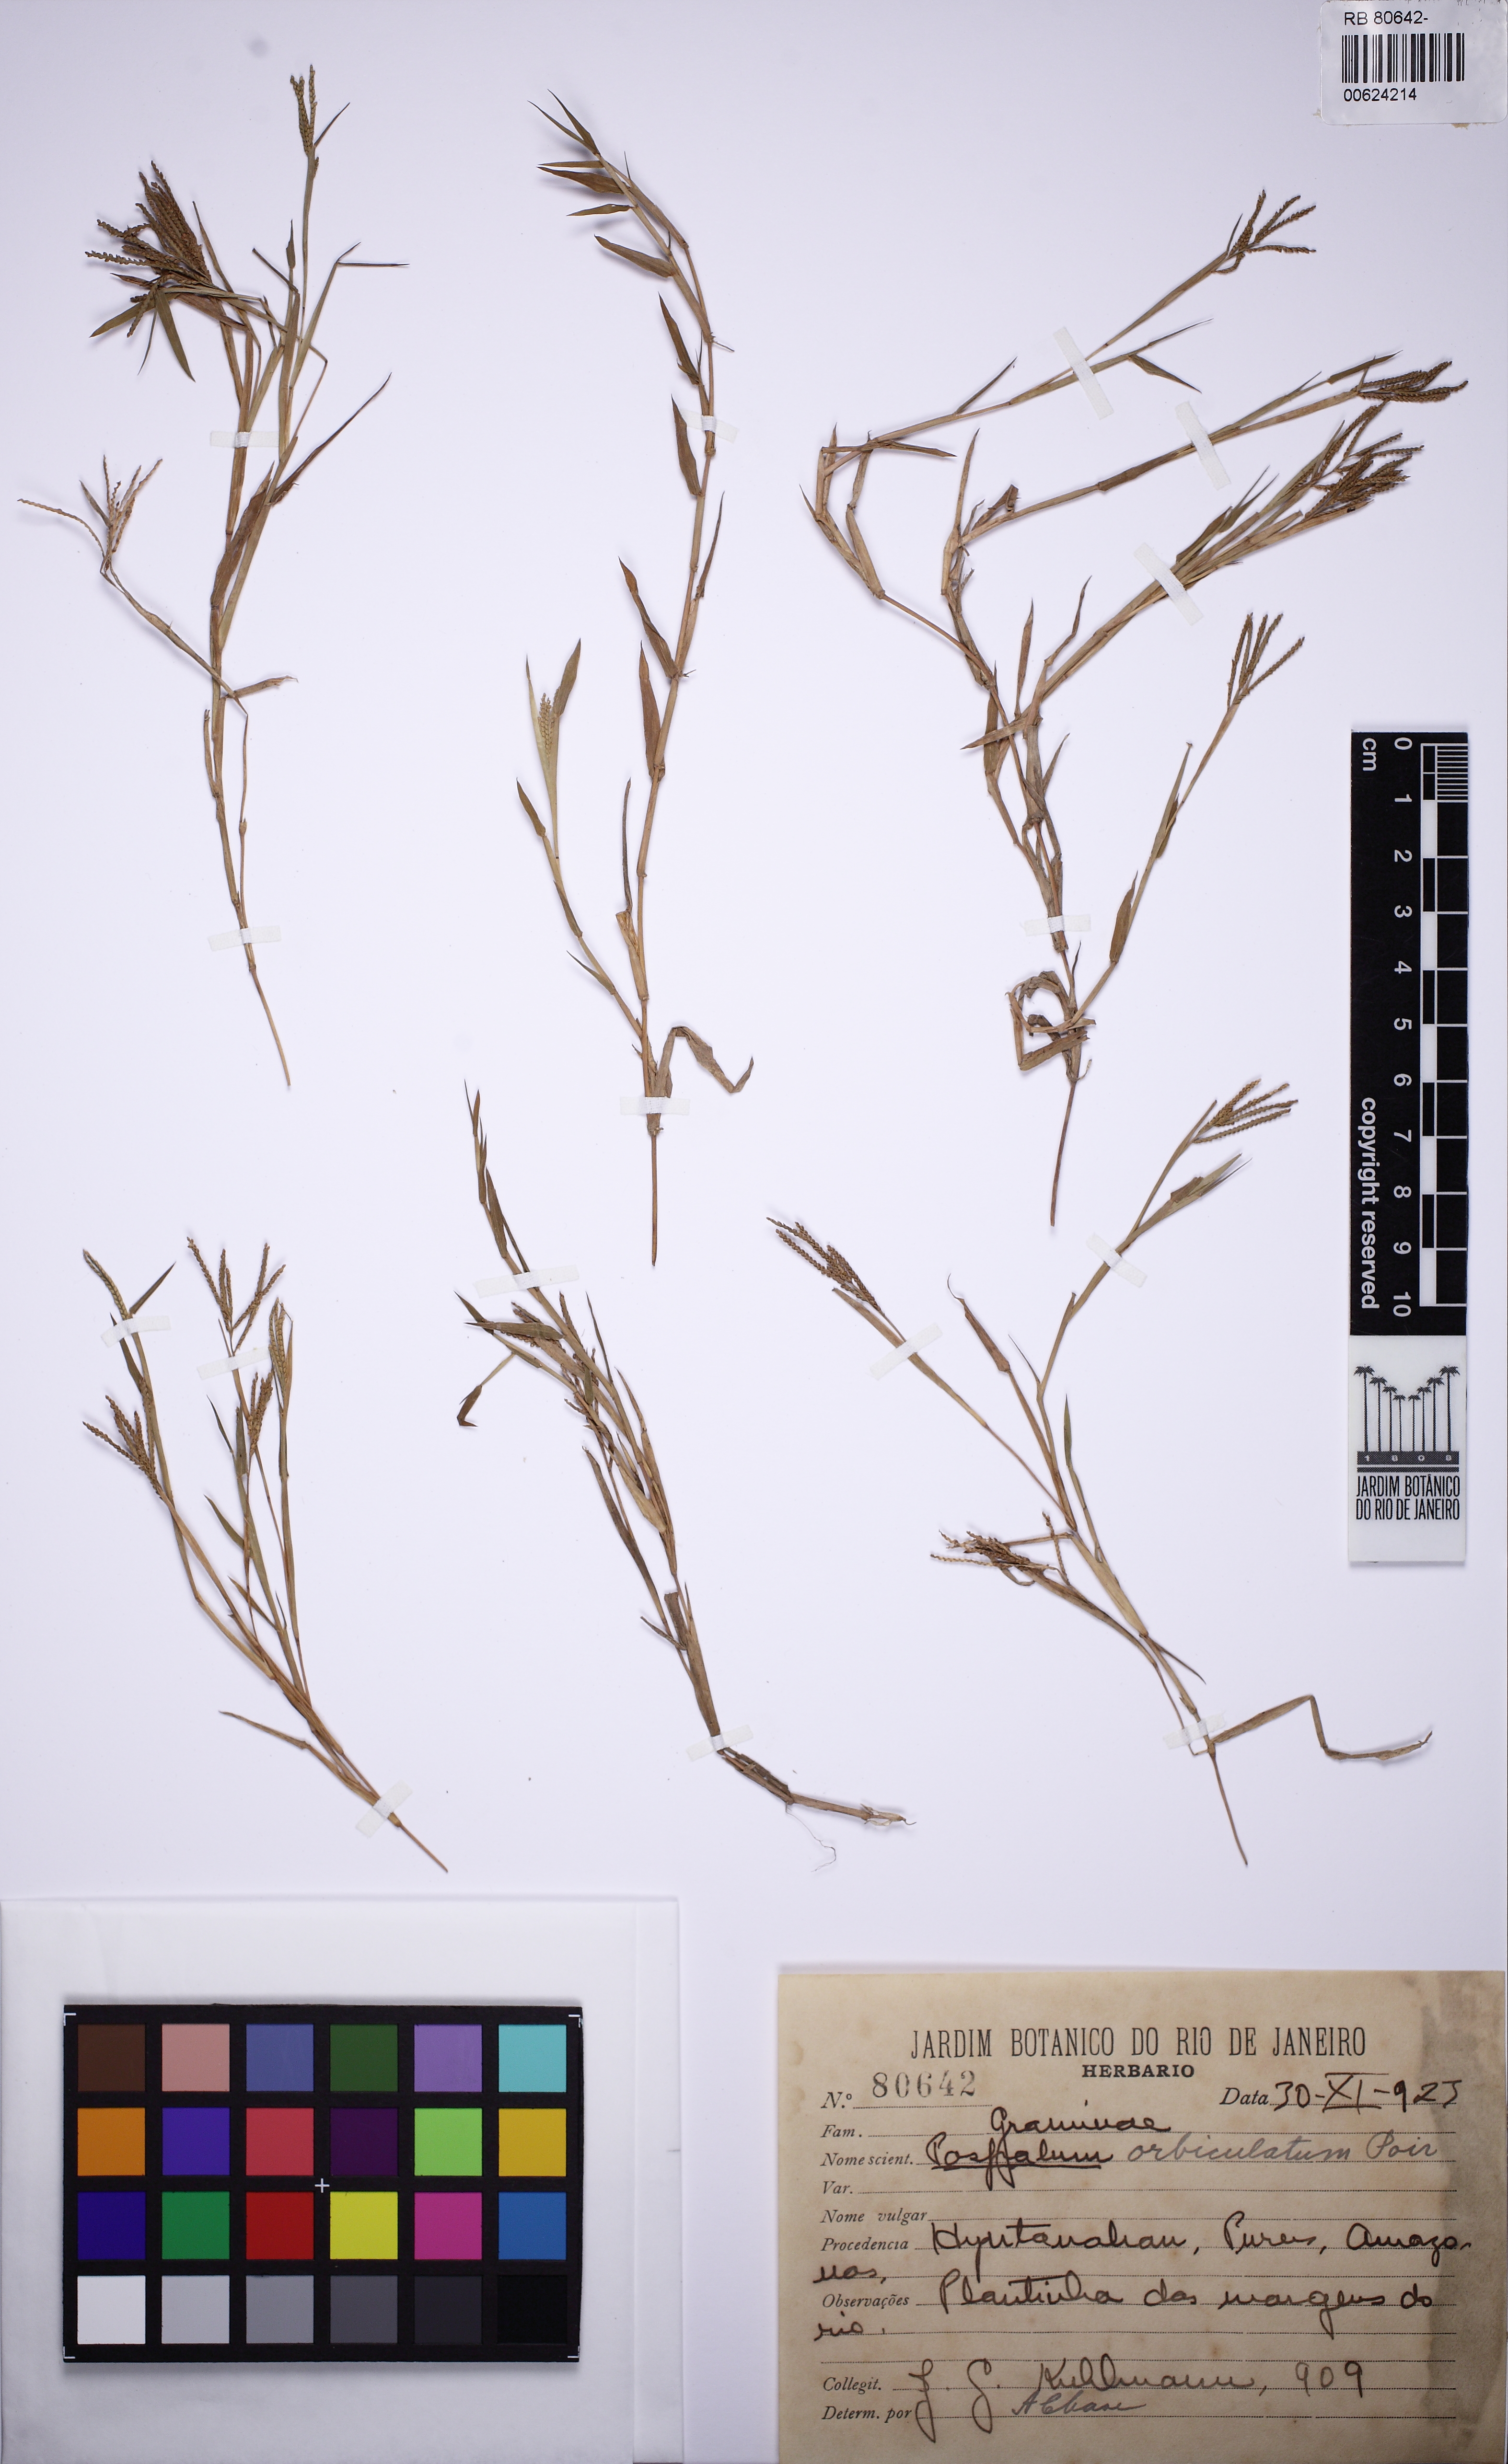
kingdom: Plantae
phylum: Tracheophyta
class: Liliopsida
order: Poales
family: Poaceae
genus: Paspalum
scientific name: Paspalum orbiculatum
